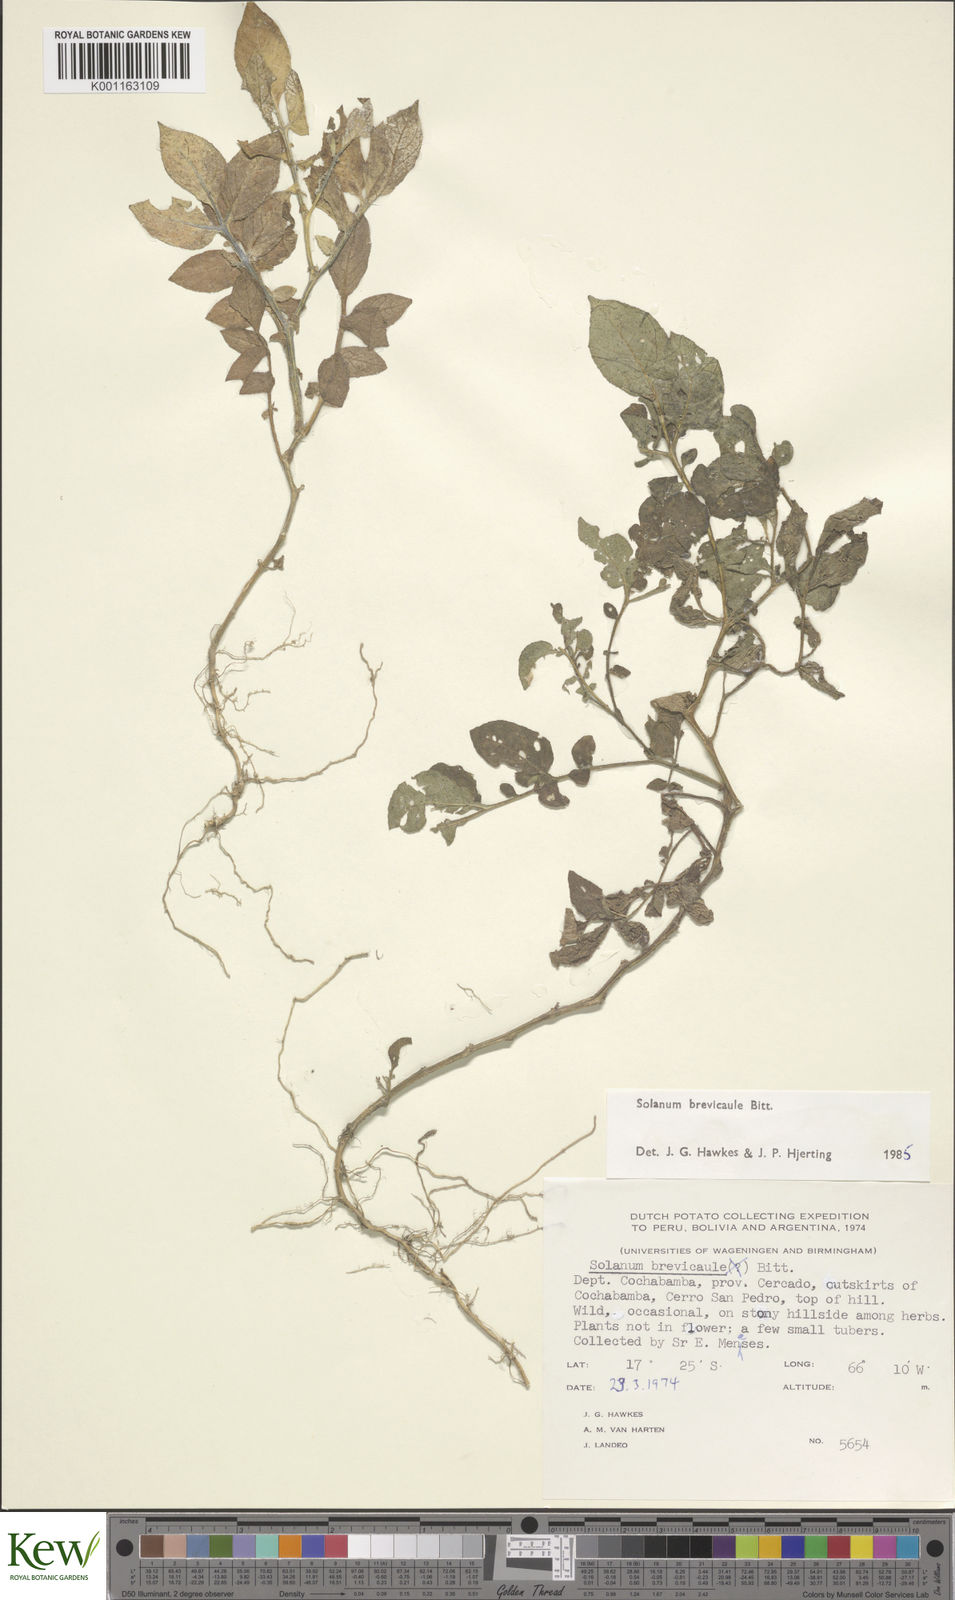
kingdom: Plantae
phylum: Tracheophyta
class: Magnoliopsida
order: Solanales
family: Solanaceae
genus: Solanum
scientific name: Solanum brevicaule
